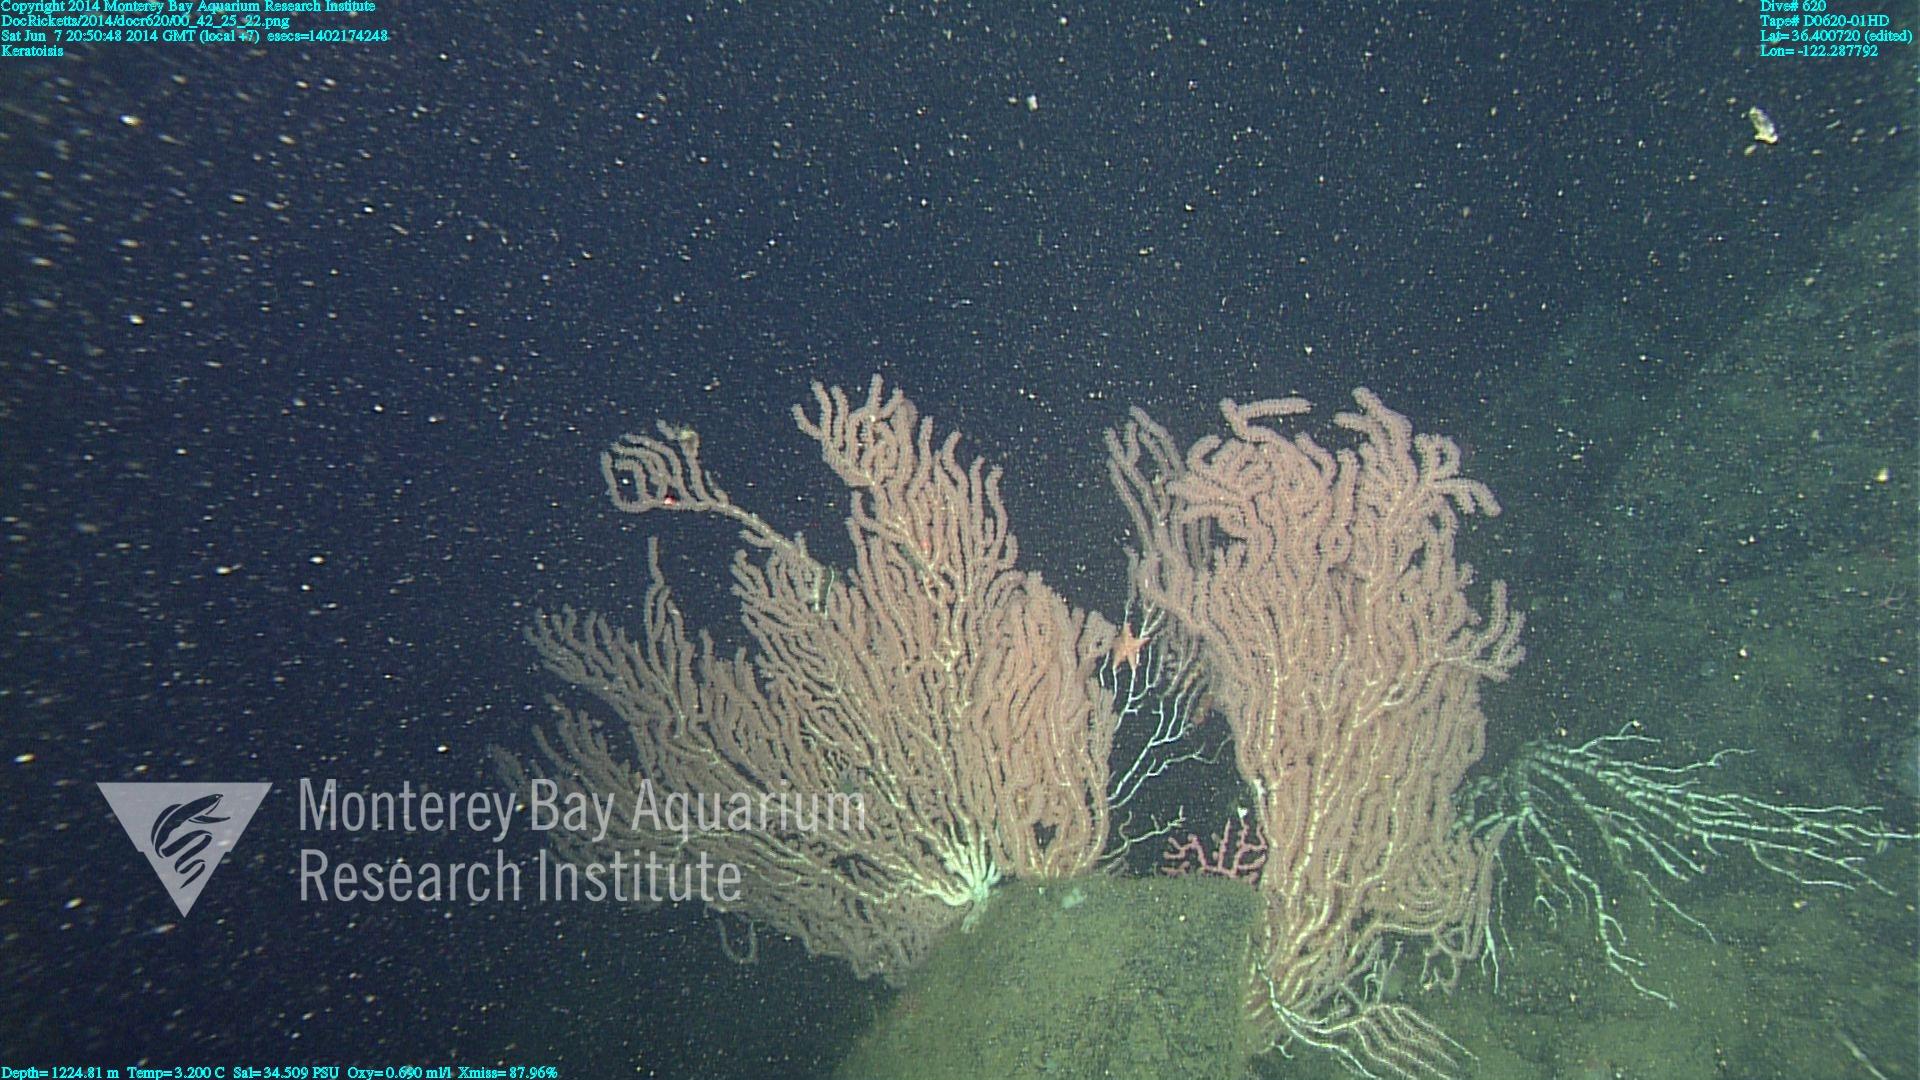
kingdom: Animalia
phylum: Cnidaria
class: Anthozoa
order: Scleralcyonacea
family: Keratoisididae
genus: Keratoisis
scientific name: Keratoisis
